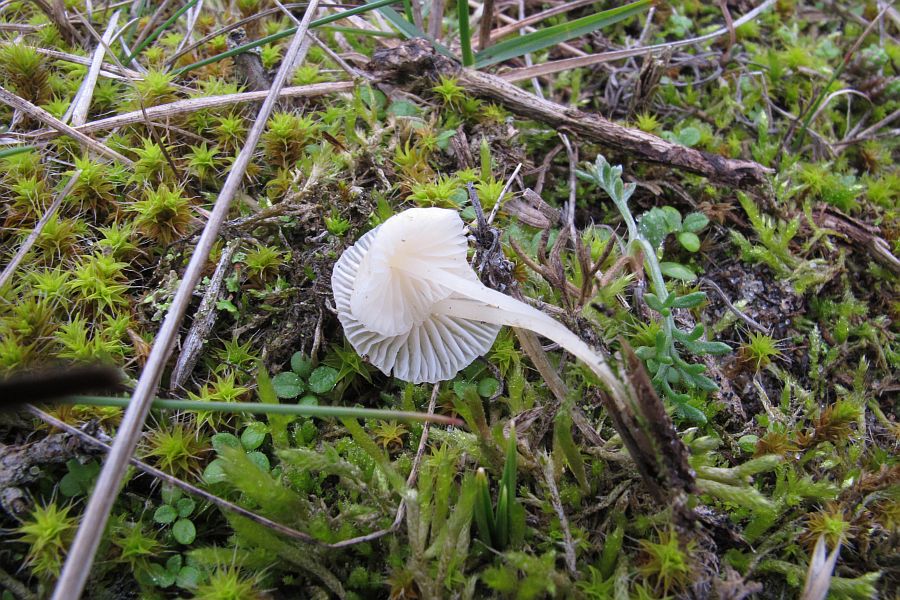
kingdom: Fungi
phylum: Basidiomycota
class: Agaricomycetes
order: Agaricales
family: Mycenaceae
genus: Atheniella
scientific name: Atheniella flavoalba
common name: gulhvid huesvamp
